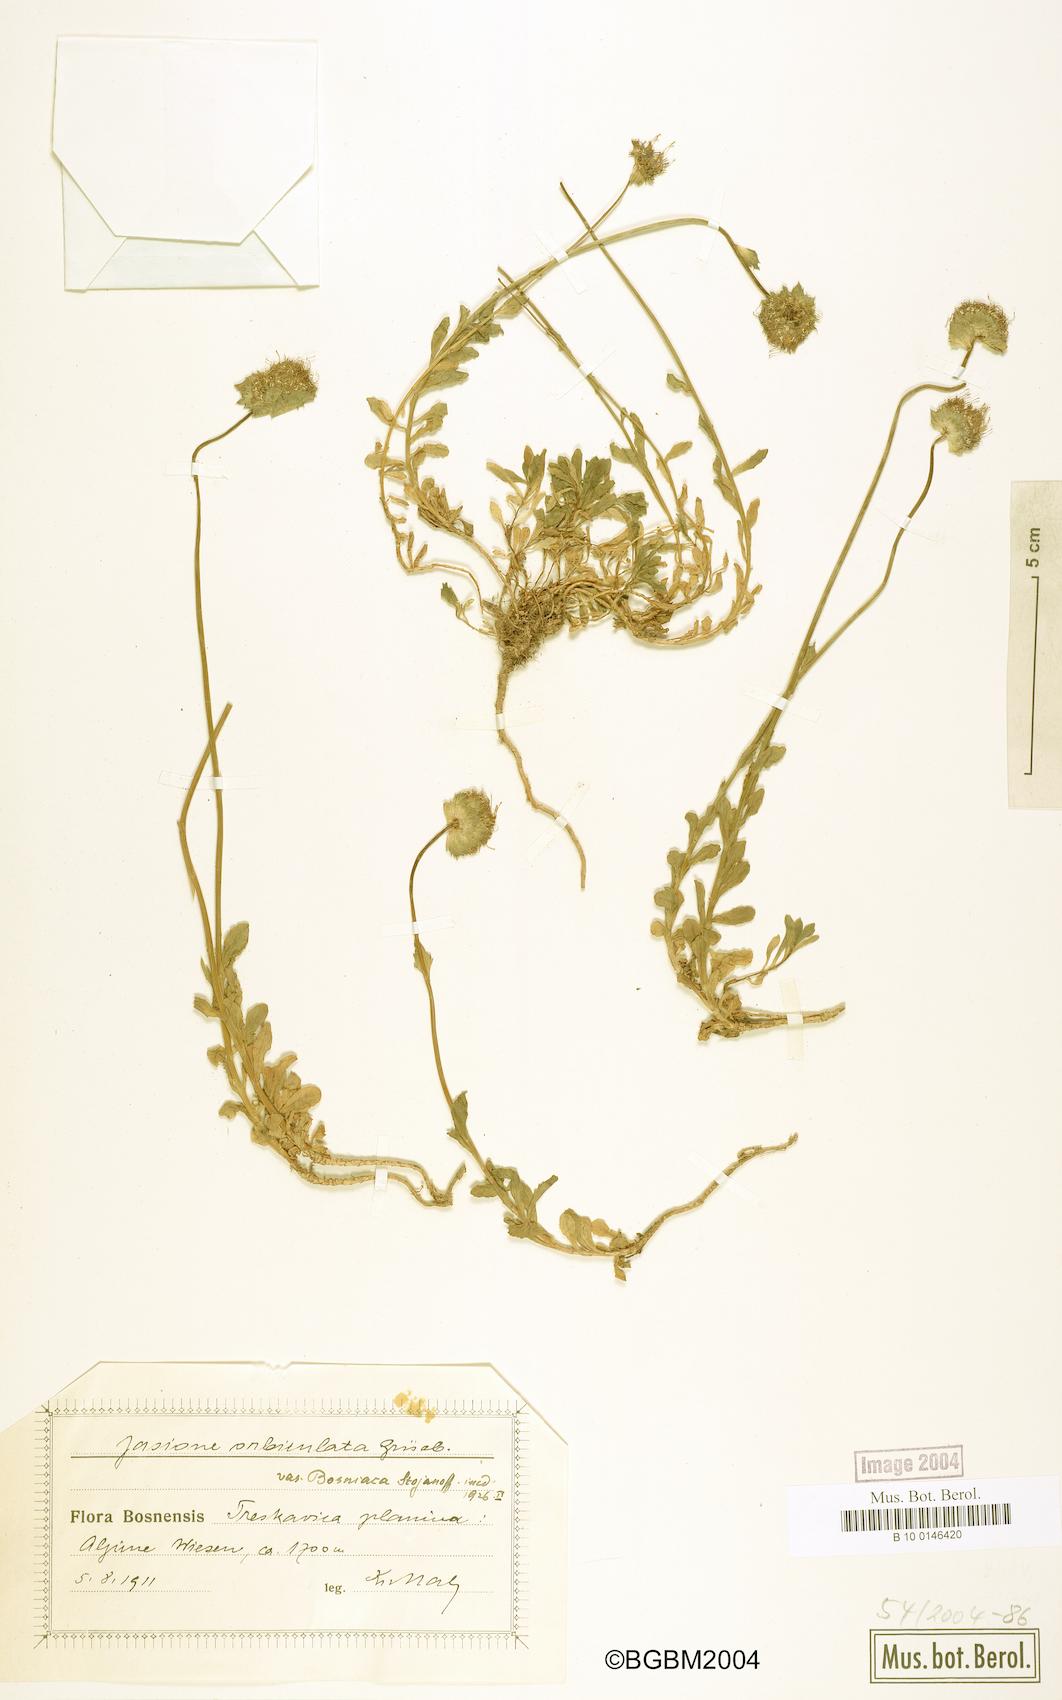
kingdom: Plantae
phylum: Tracheophyta
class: Magnoliopsida
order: Asterales
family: Campanulaceae
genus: Jasione
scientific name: Jasione orbiculata
